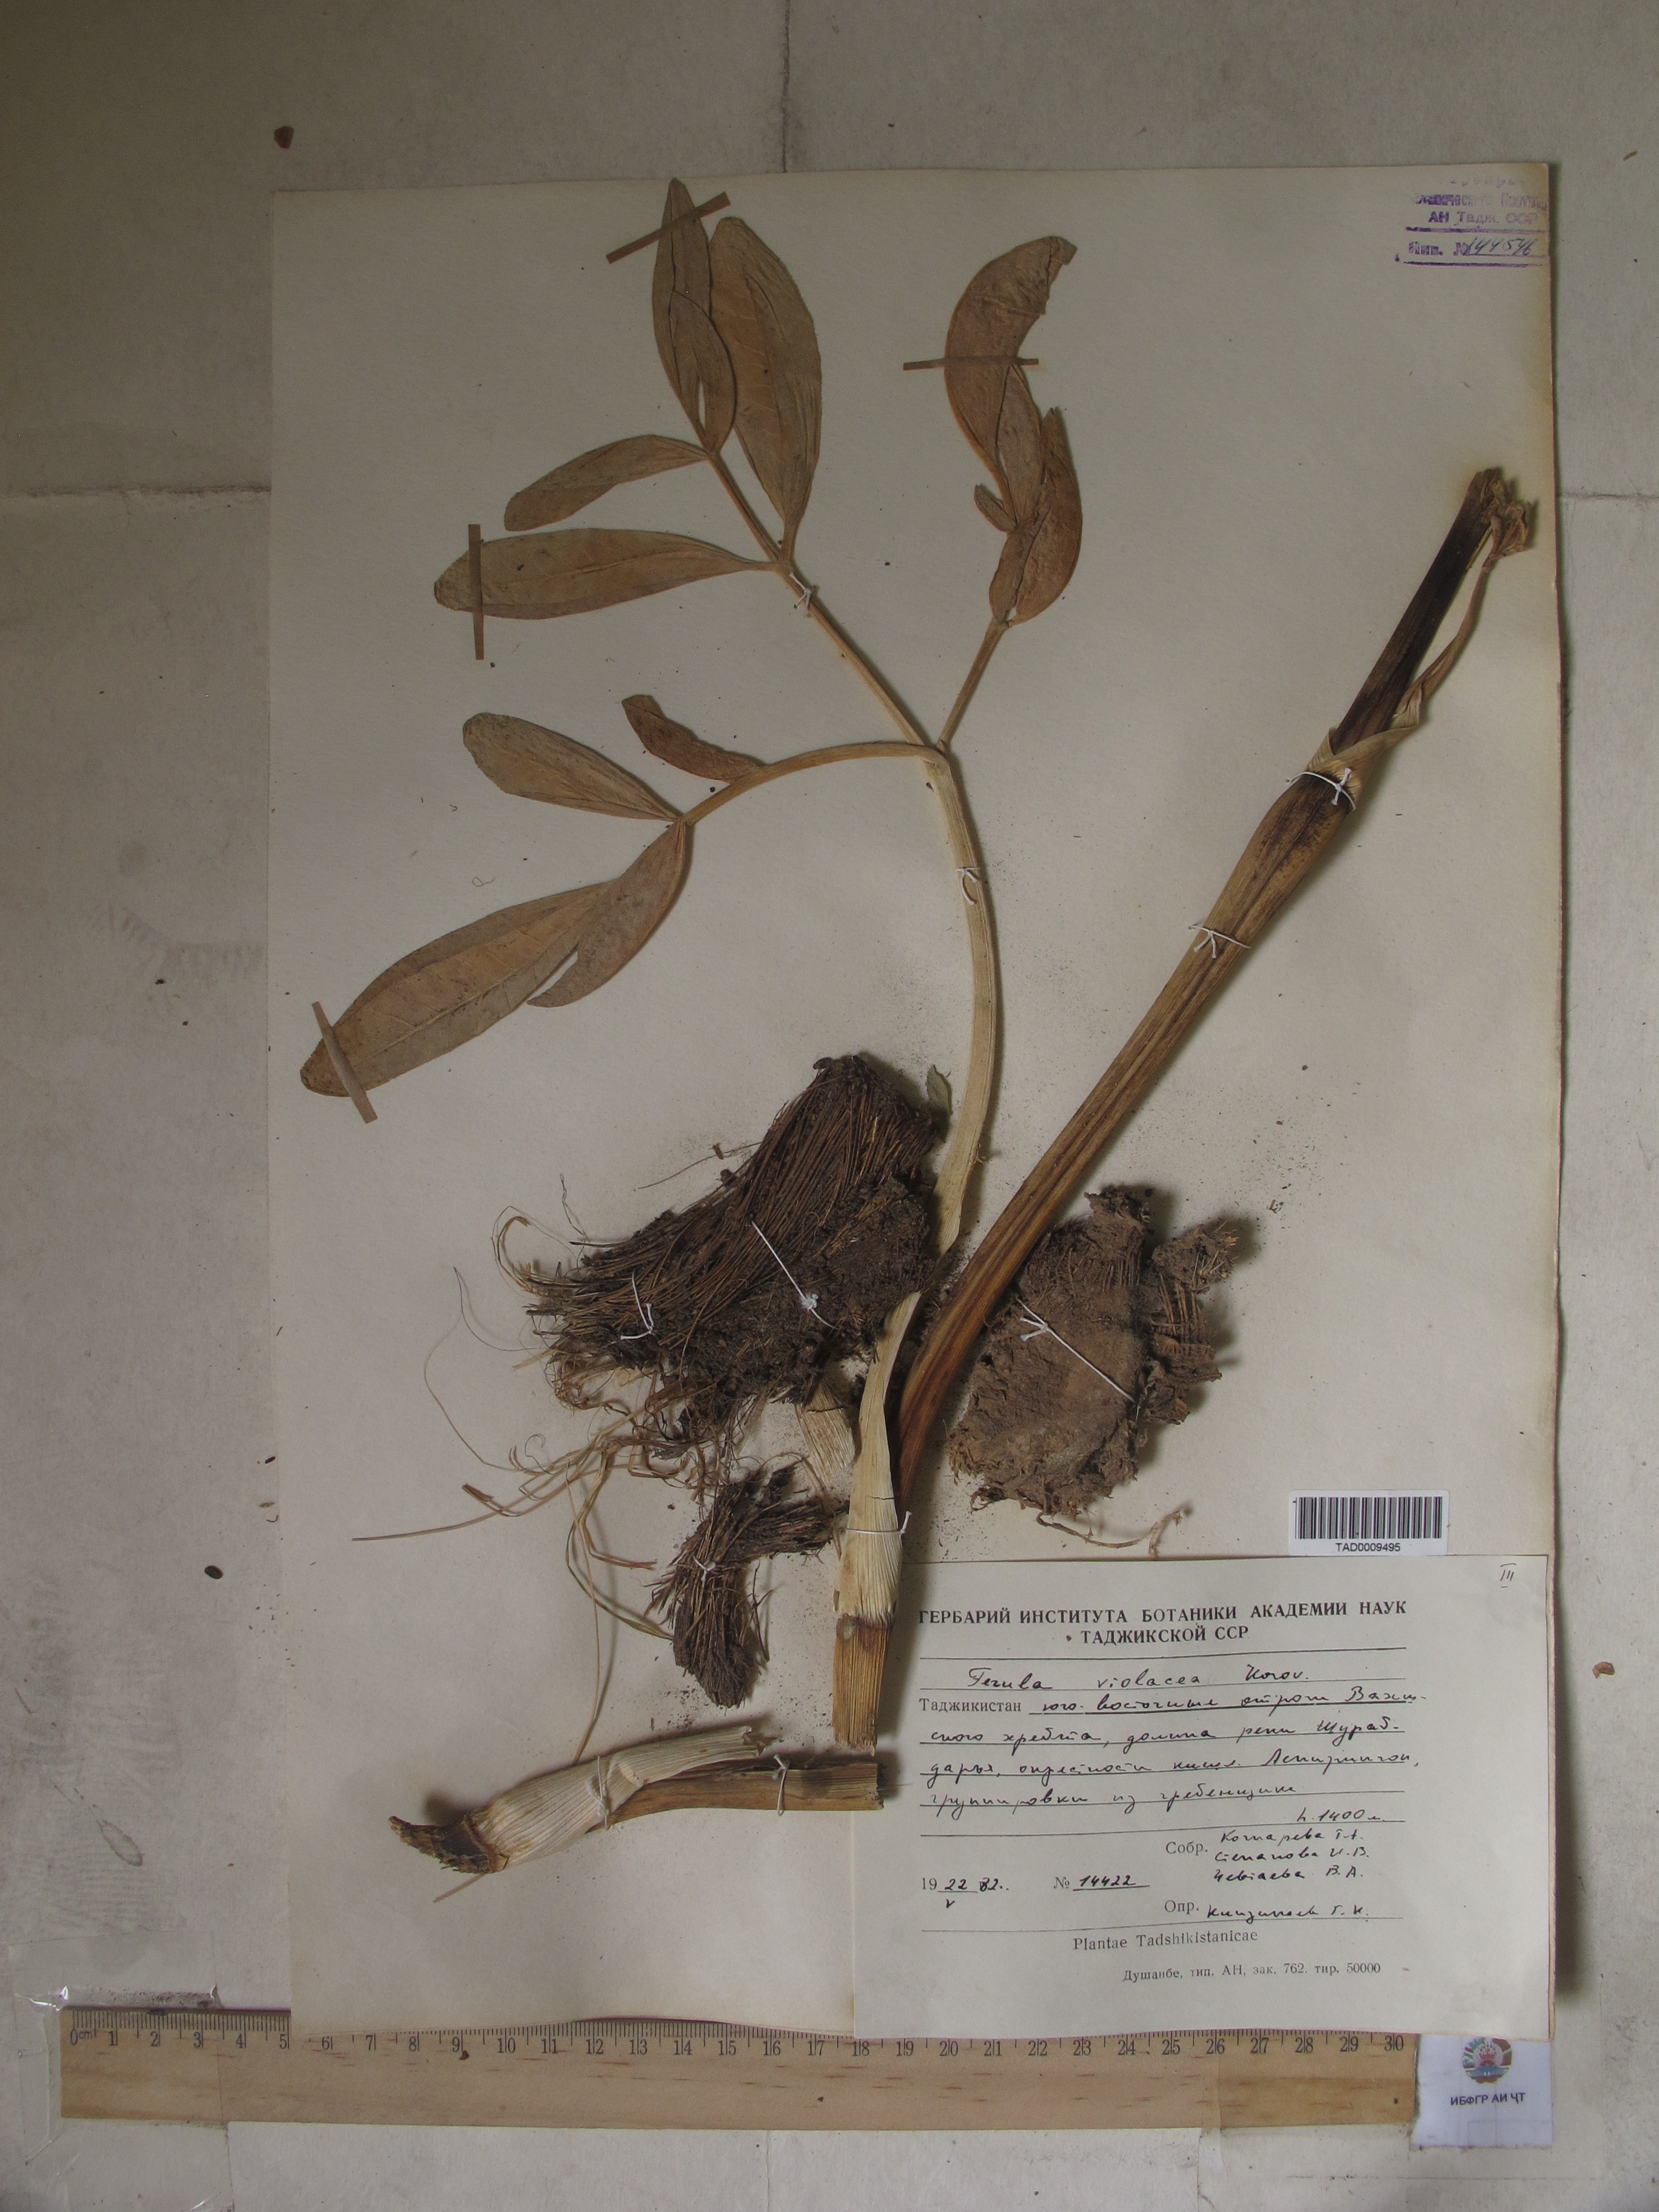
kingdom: Plantae
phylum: Tracheophyta
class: Magnoliopsida
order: Apiales
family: Apiaceae
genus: Ferula
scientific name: Ferula violacea
